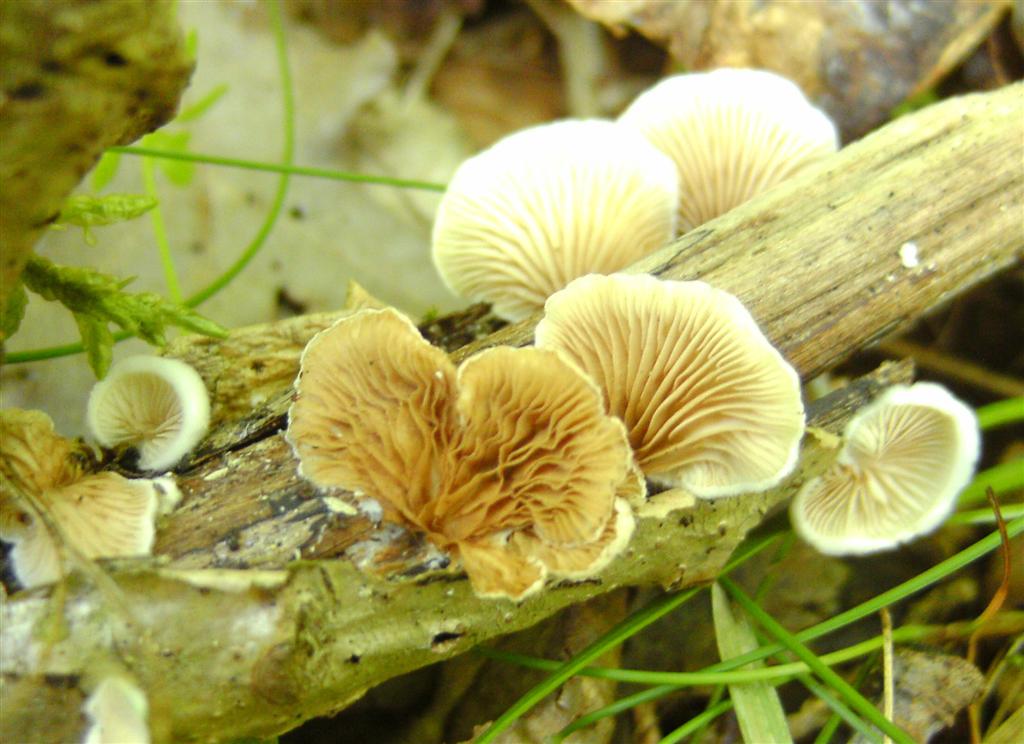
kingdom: Fungi
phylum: Basidiomycota
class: Agaricomycetes
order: Agaricales
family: Crepidotaceae
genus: Crepidotus
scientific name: Crepidotus variabilis
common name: forskelligformet muslingesvamp
